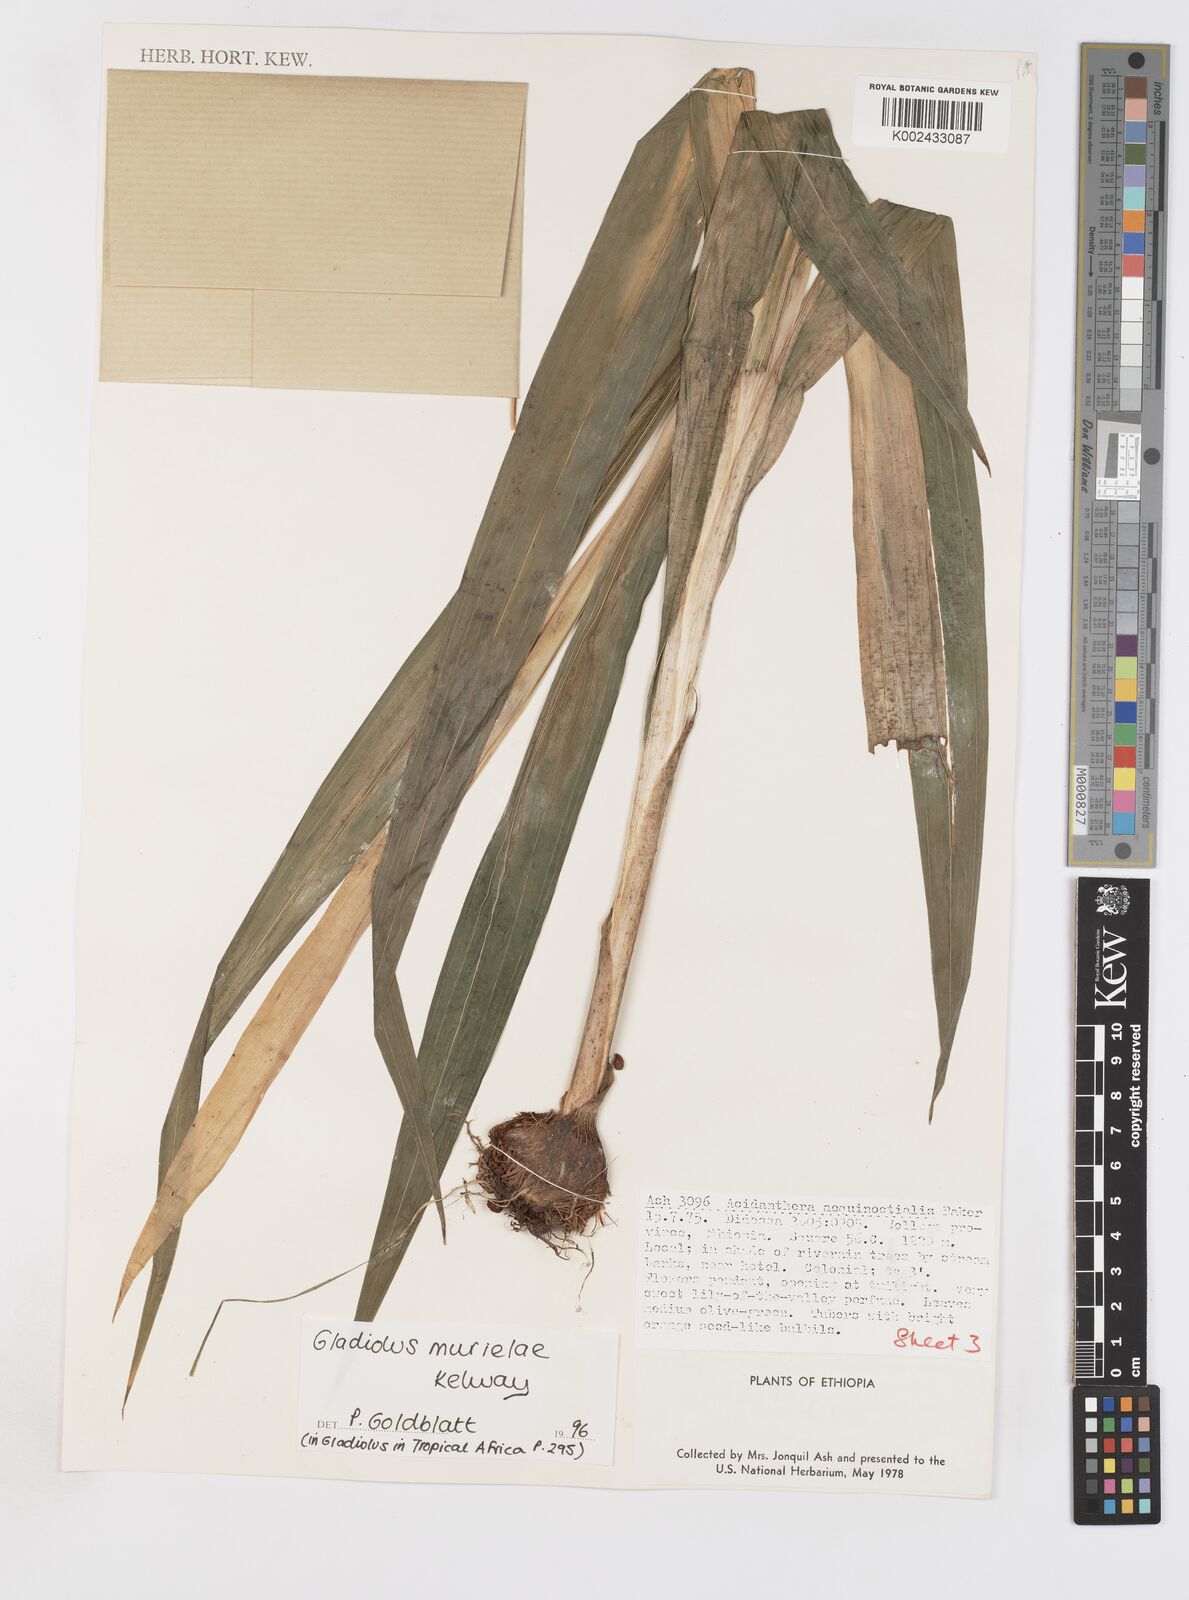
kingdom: Plantae
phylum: Tracheophyta
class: Liliopsida
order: Asparagales
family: Iridaceae
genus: Gladiolus
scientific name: Gladiolus murielae
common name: Acidanthera
